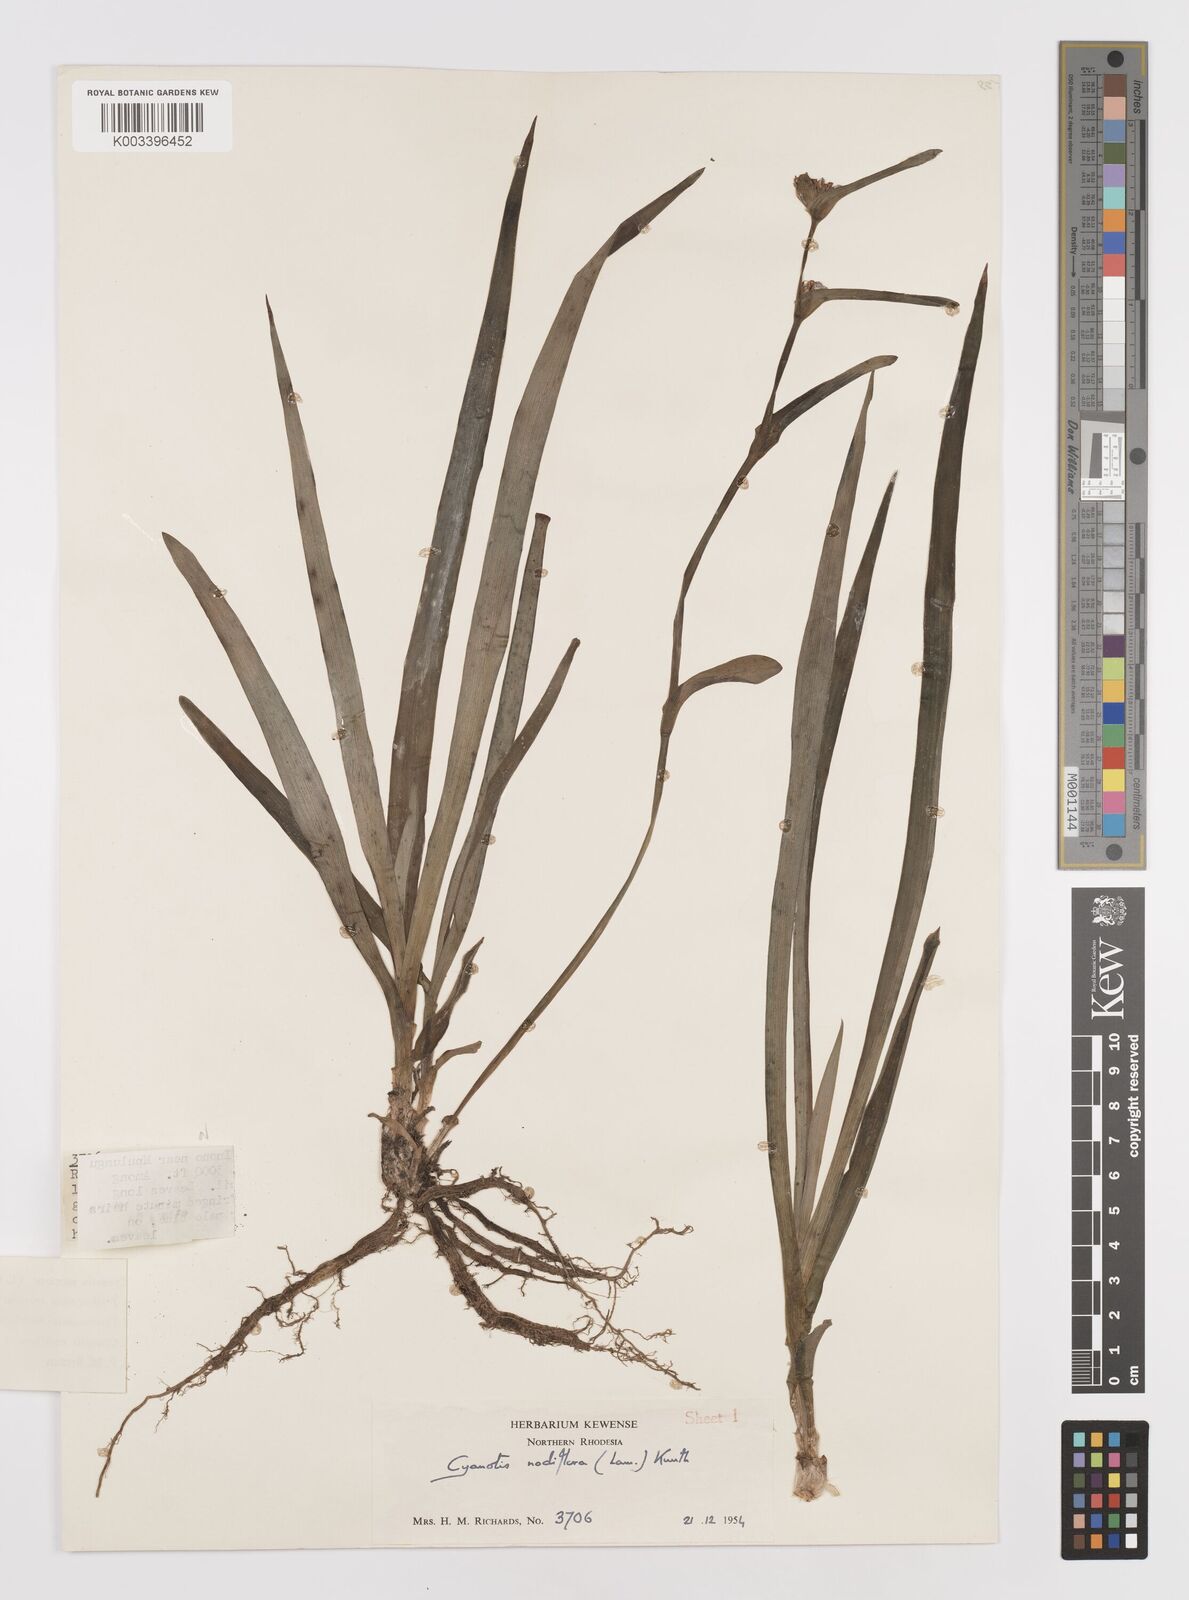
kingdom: Plantae
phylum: Tracheophyta
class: Liliopsida
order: Commelinales
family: Commelinaceae
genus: Cyanotis
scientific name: Cyanotis speciosa
